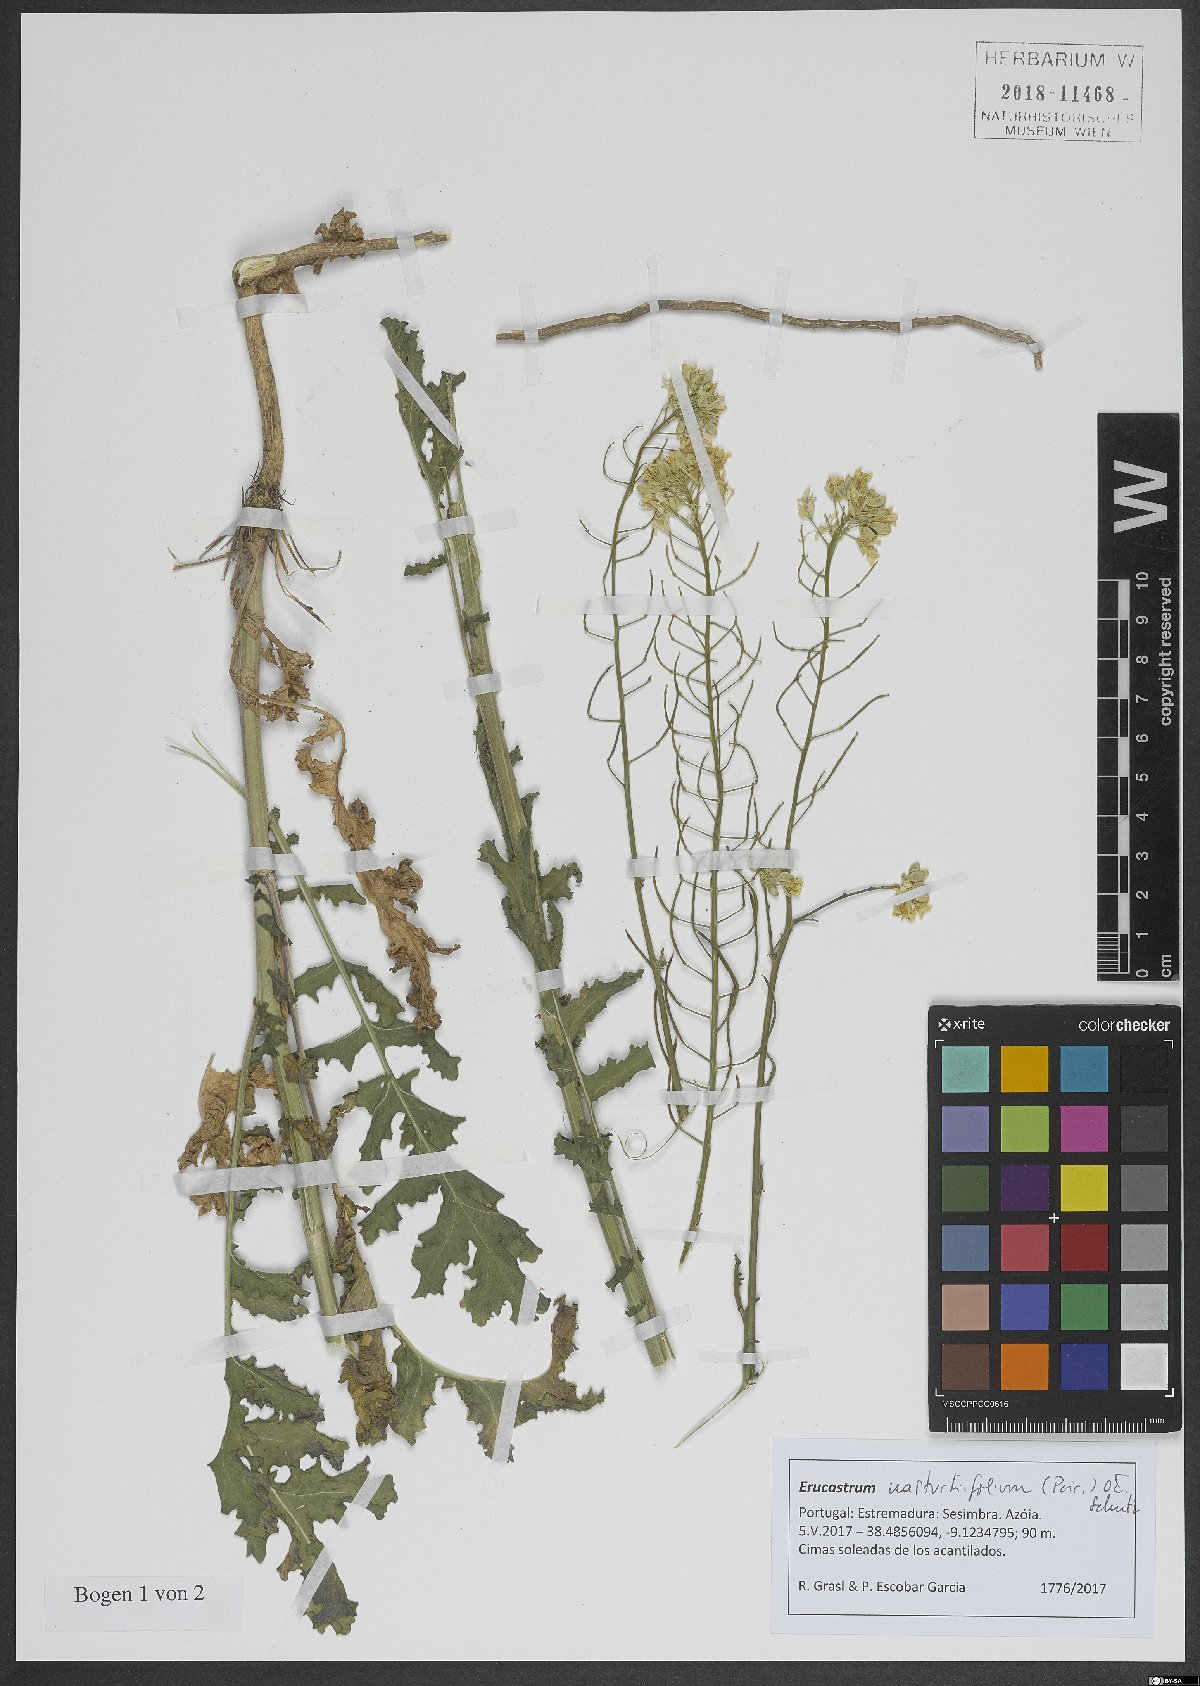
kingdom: Plantae
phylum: Tracheophyta
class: Magnoliopsida
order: Brassicales
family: Brassicaceae
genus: Erucastrum
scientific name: Erucastrum nasturtiifolium
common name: Watercress-leaf rocket
